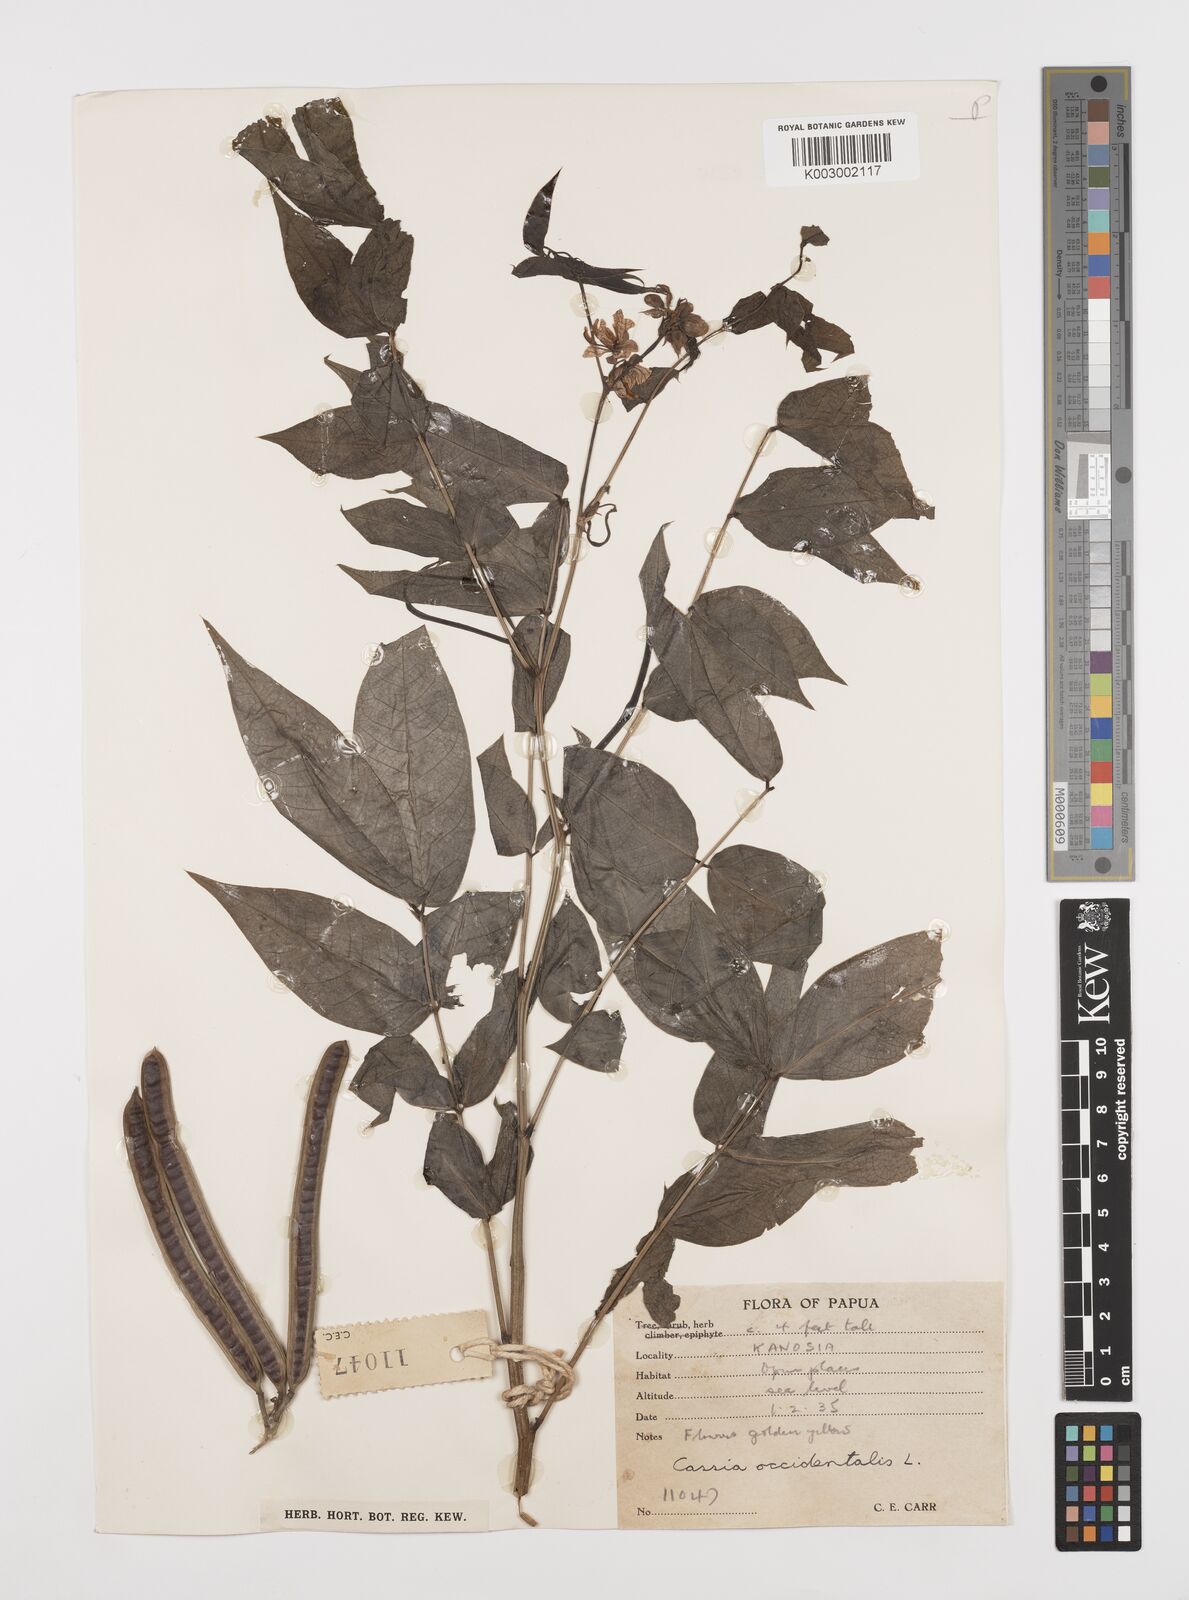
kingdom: Plantae
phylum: Tracheophyta
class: Magnoliopsida
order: Fabales
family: Fabaceae
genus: Senna
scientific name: Senna occidentalis
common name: Septicweed
